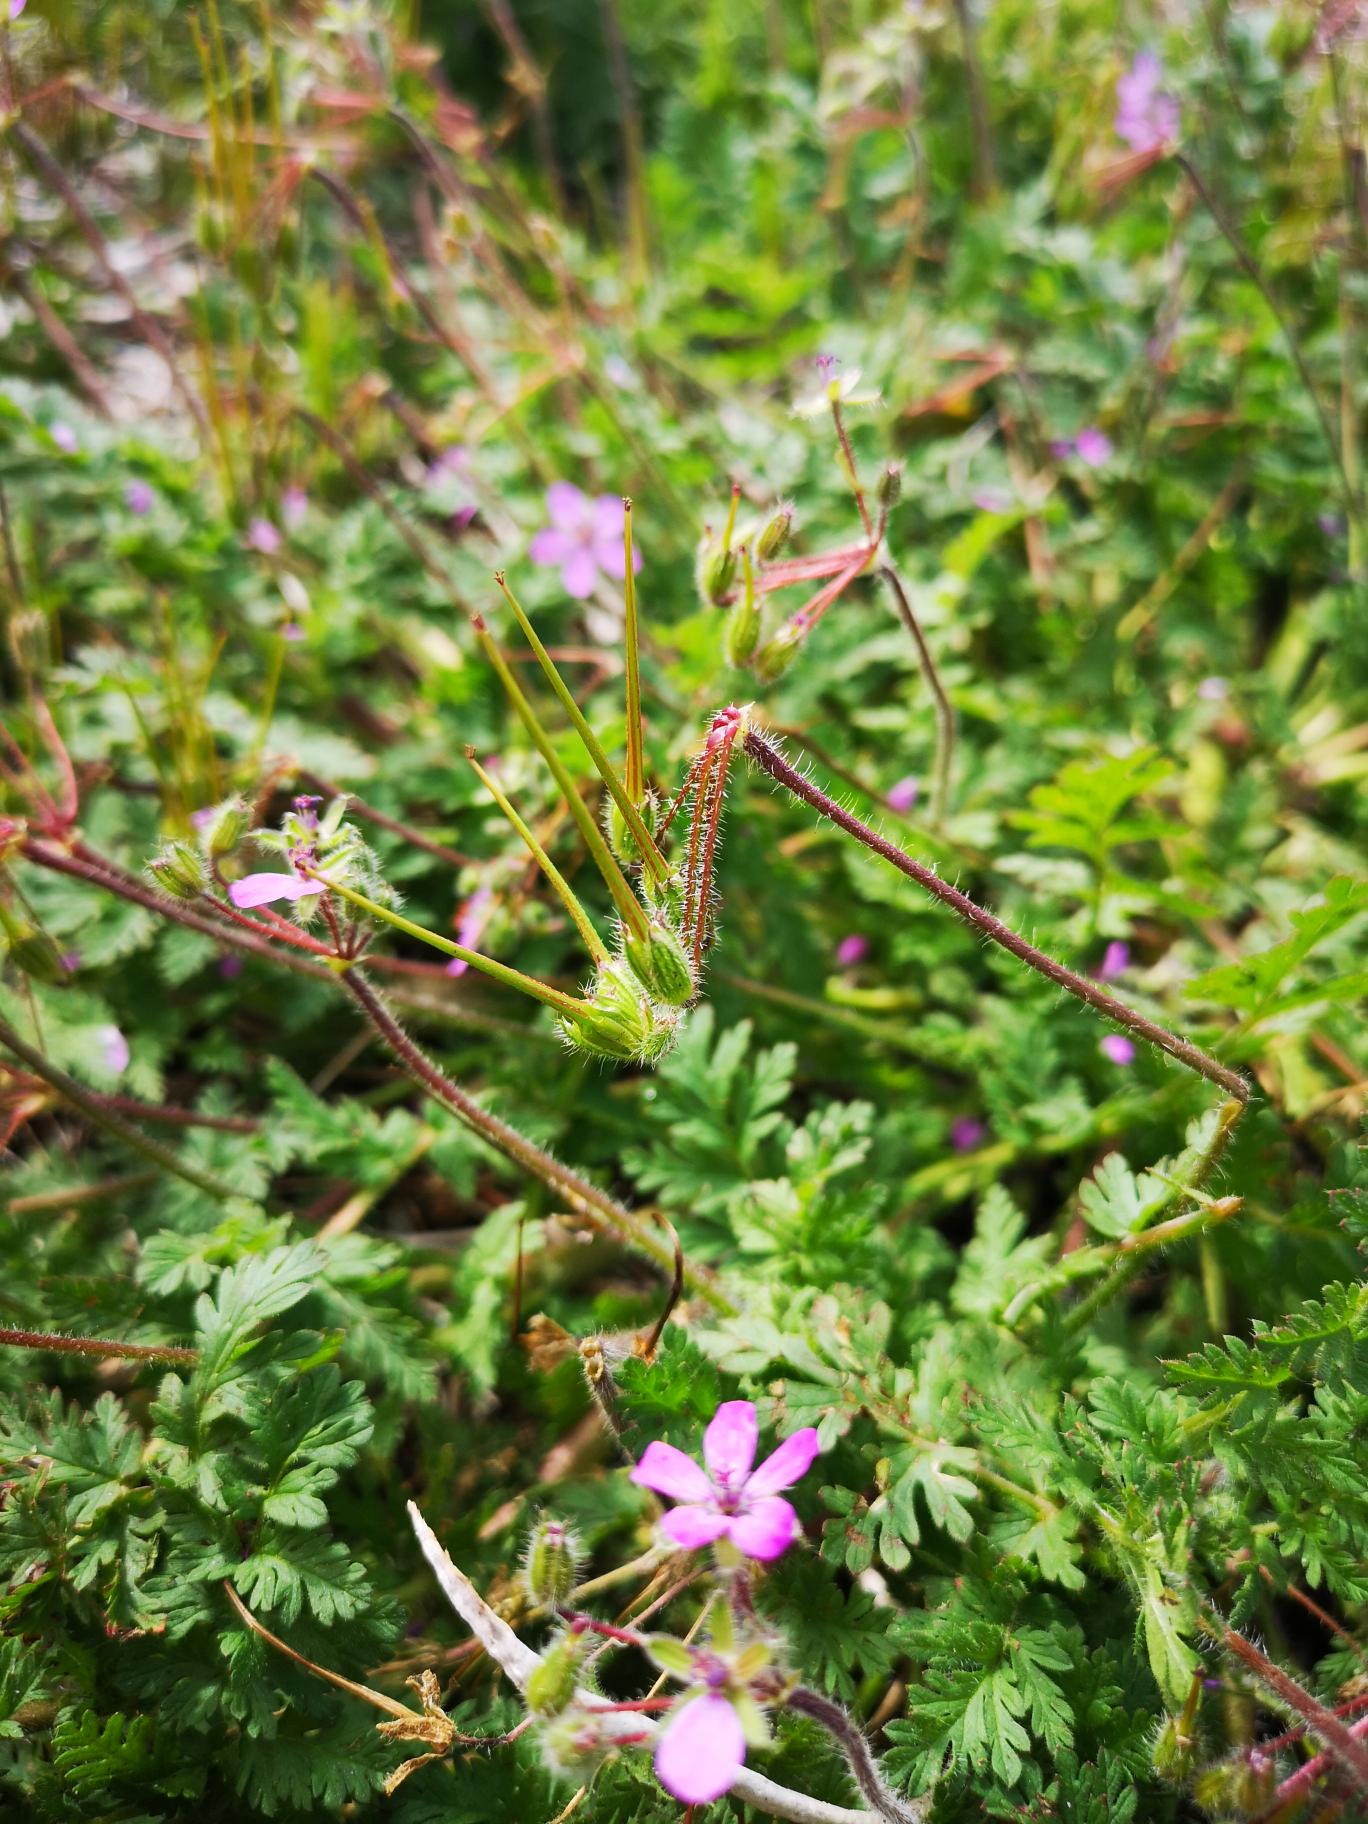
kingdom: Plantae
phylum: Tracheophyta
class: Magnoliopsida
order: Geraniales
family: Geraniaceae
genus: Erodium
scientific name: Erodium cicutarium
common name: Hejrenæb
